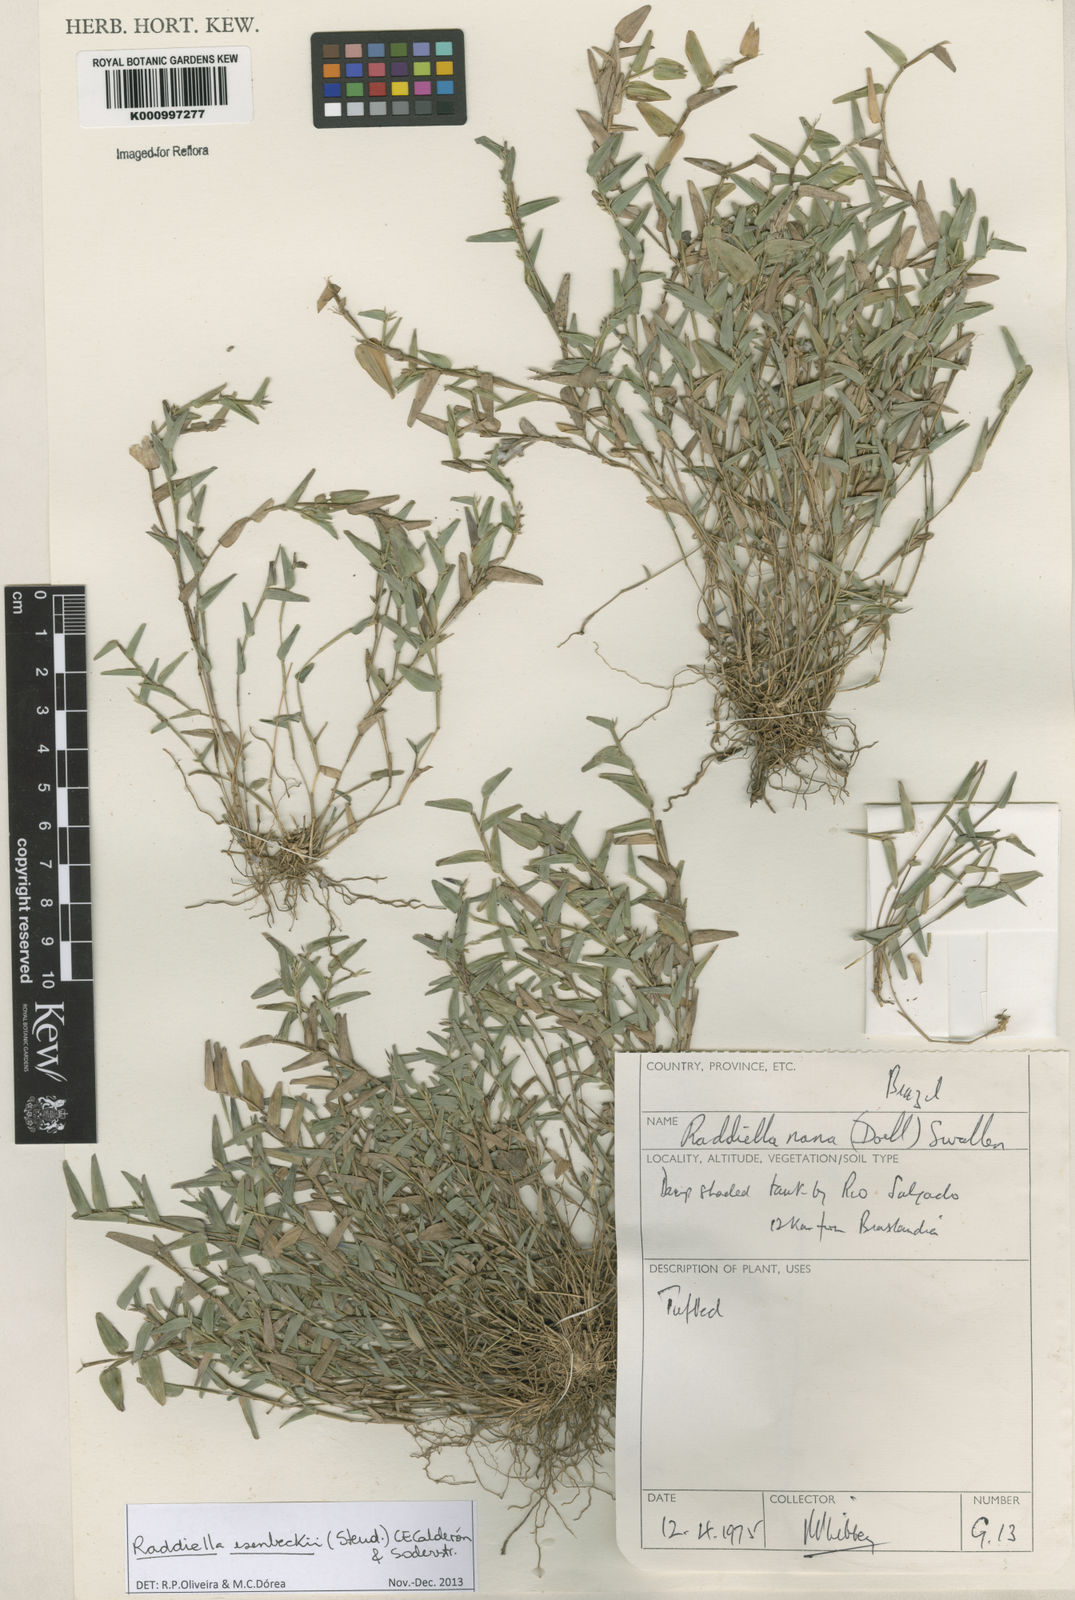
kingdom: Plantae
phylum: Tracheophyta
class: Liliopsida
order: Poales
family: Poaceae
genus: Raddiella
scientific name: Raddiella
